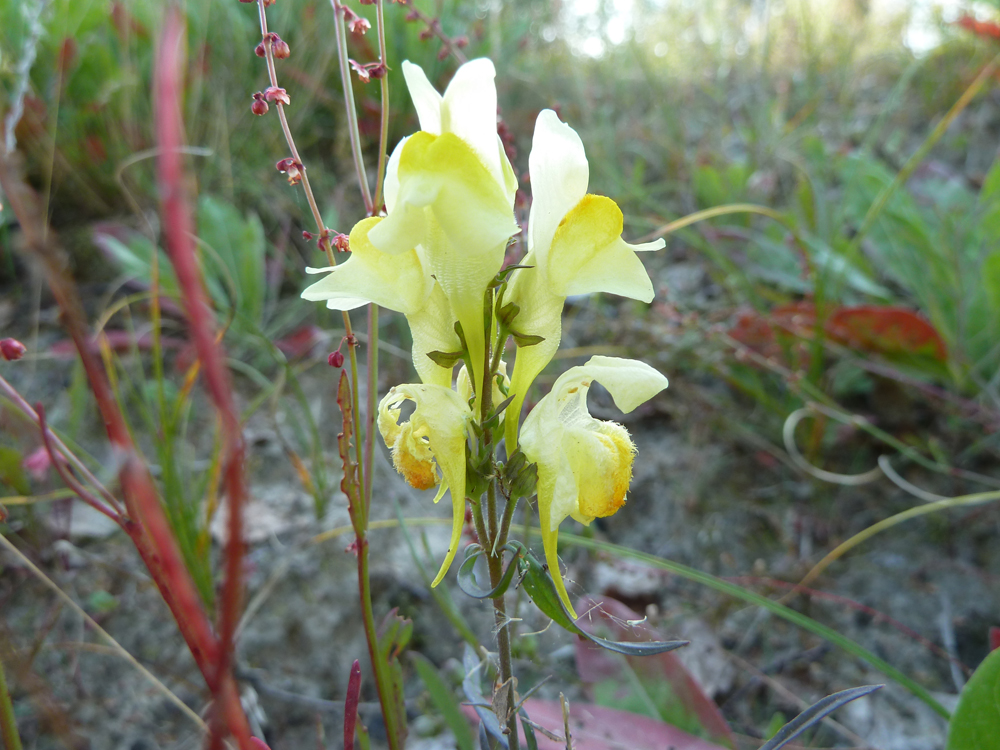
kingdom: Plantae
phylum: Tracheophyta
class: Magnoliopsida
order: Lamiales
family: Plantaginaceae
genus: Linaria
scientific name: Linaria vulgaris
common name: Butter and eggs
